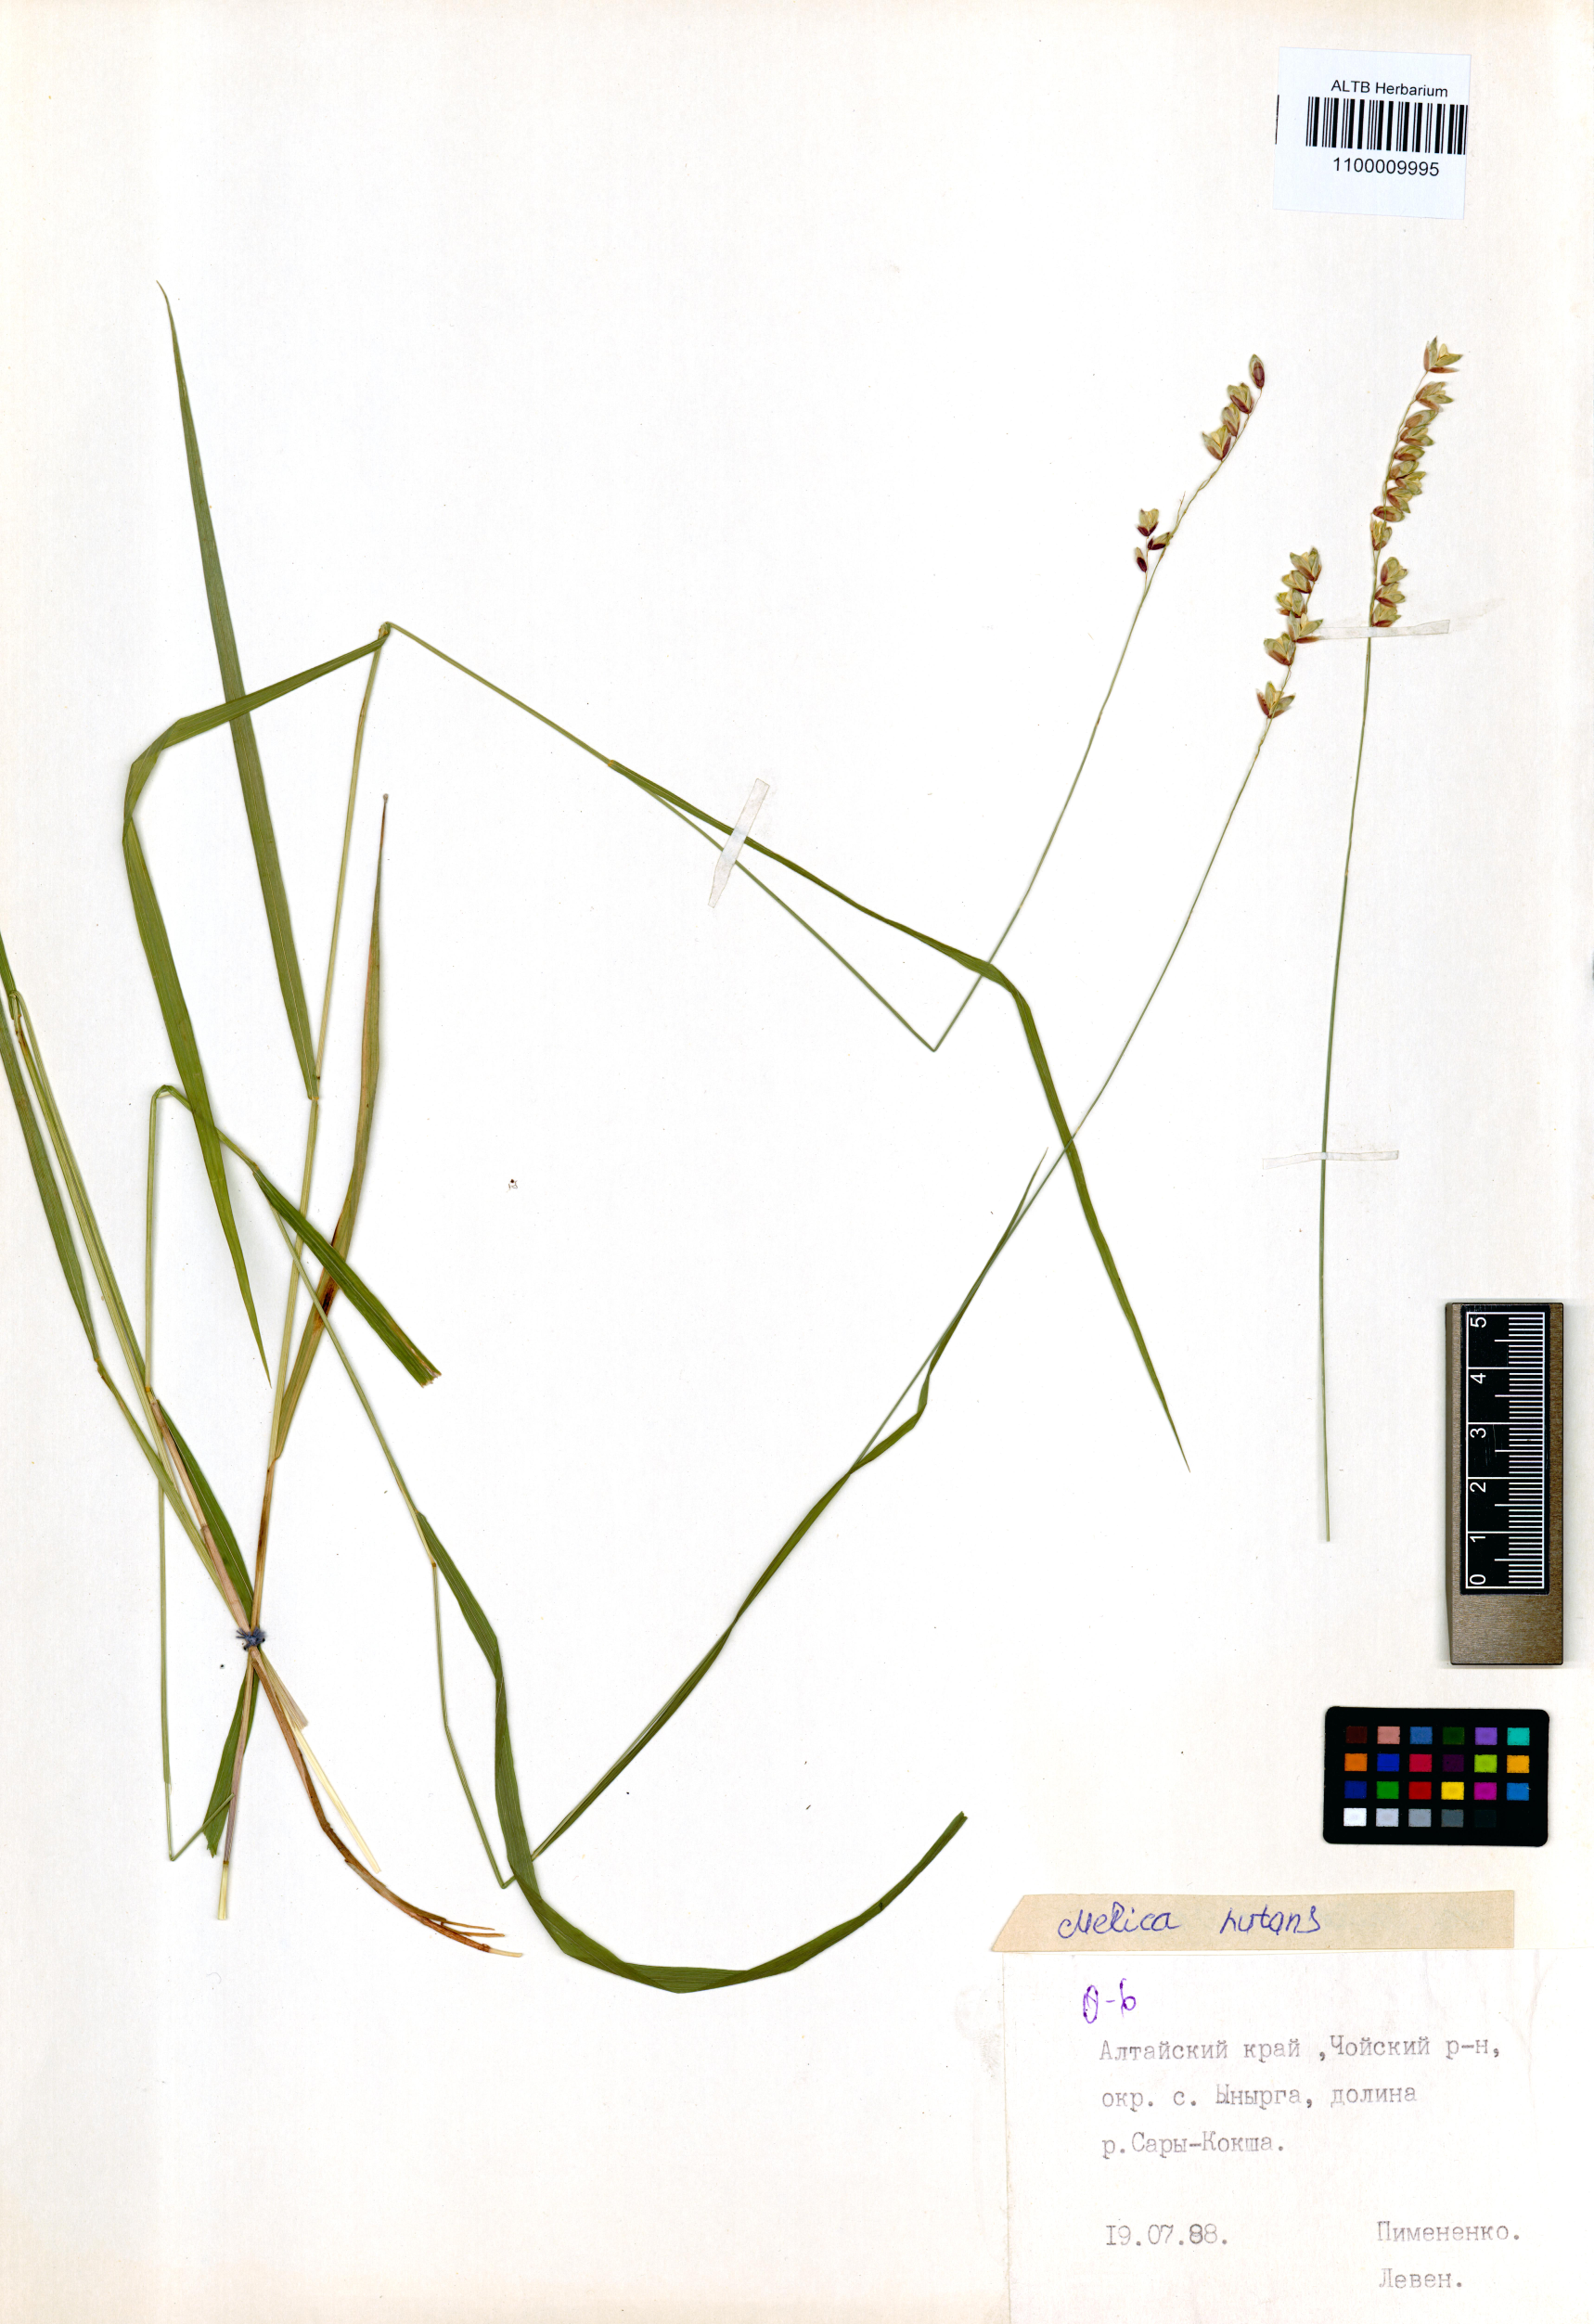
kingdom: Plantae
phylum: Tracheophyta
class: Liliopsida
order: Poales
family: Poaceae
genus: Melica
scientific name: Melica nutans
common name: Mountain melick
